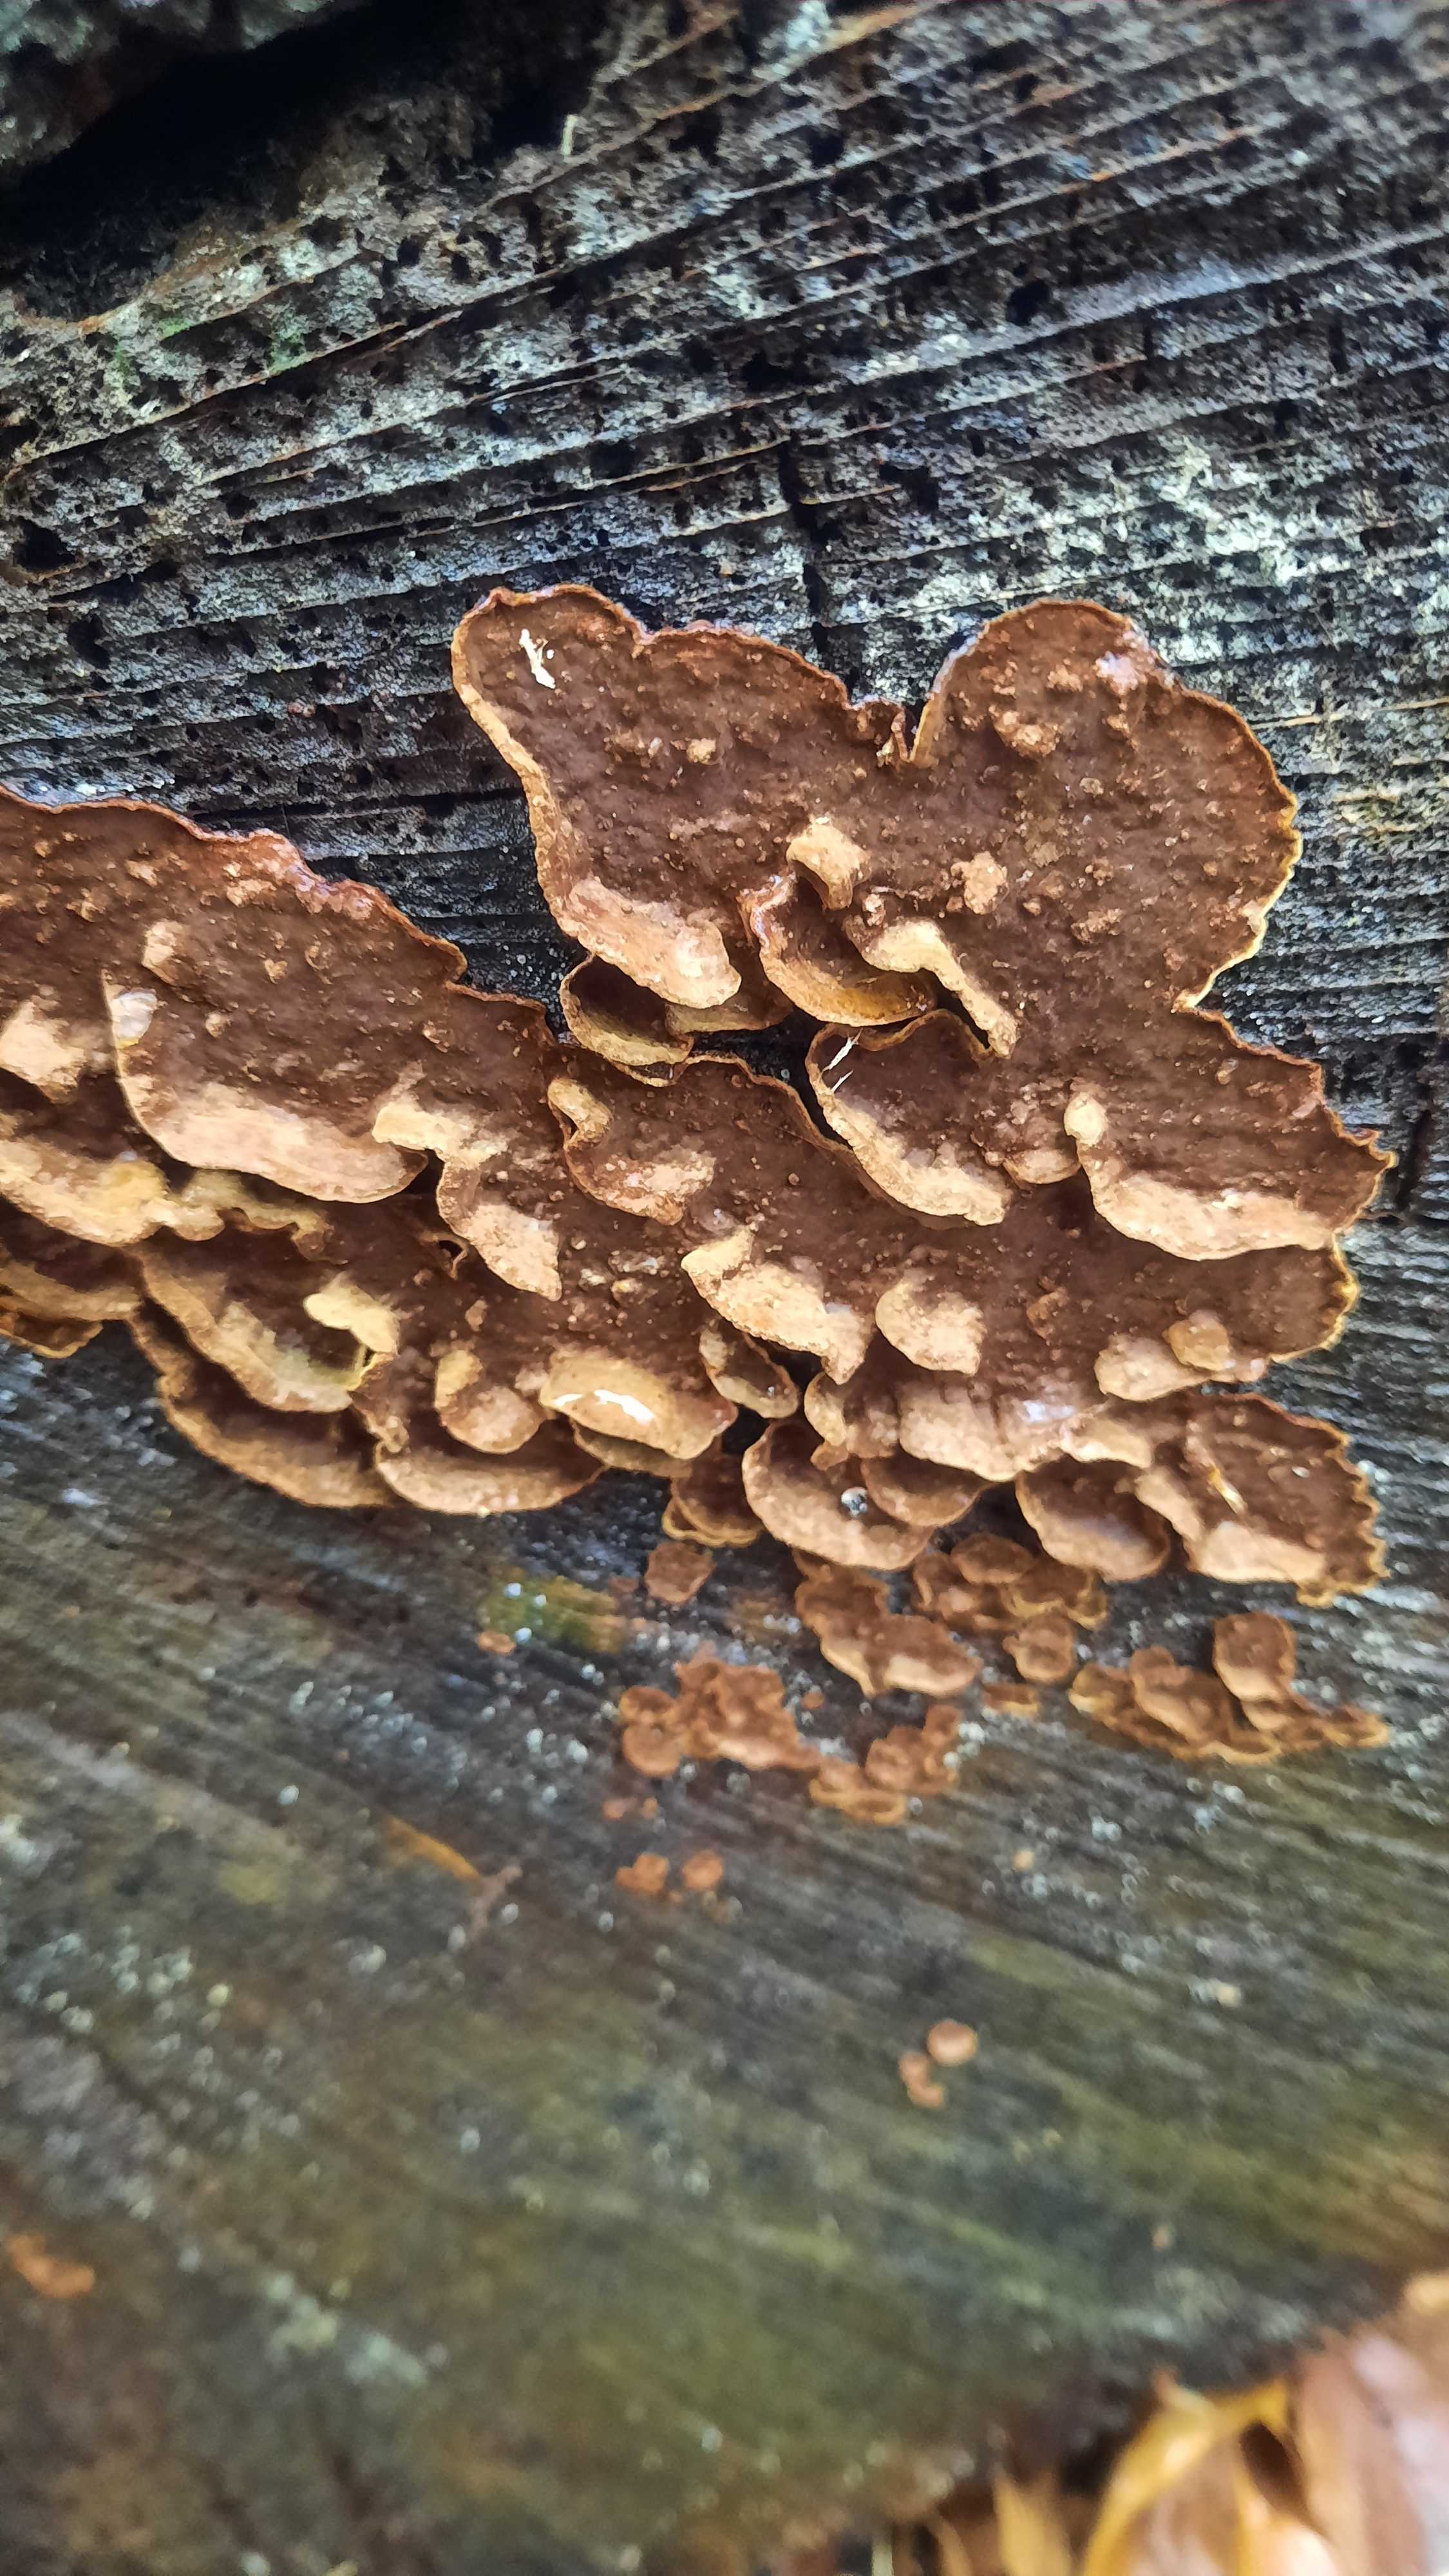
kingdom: Fungi
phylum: Basidiomycota
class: Agaricomycetes
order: Hymenochaetales
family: Hymenochaetaceae
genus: Hymenochaete
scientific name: Hymenochaete rubiginosa
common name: stiv ruslædersvamp
